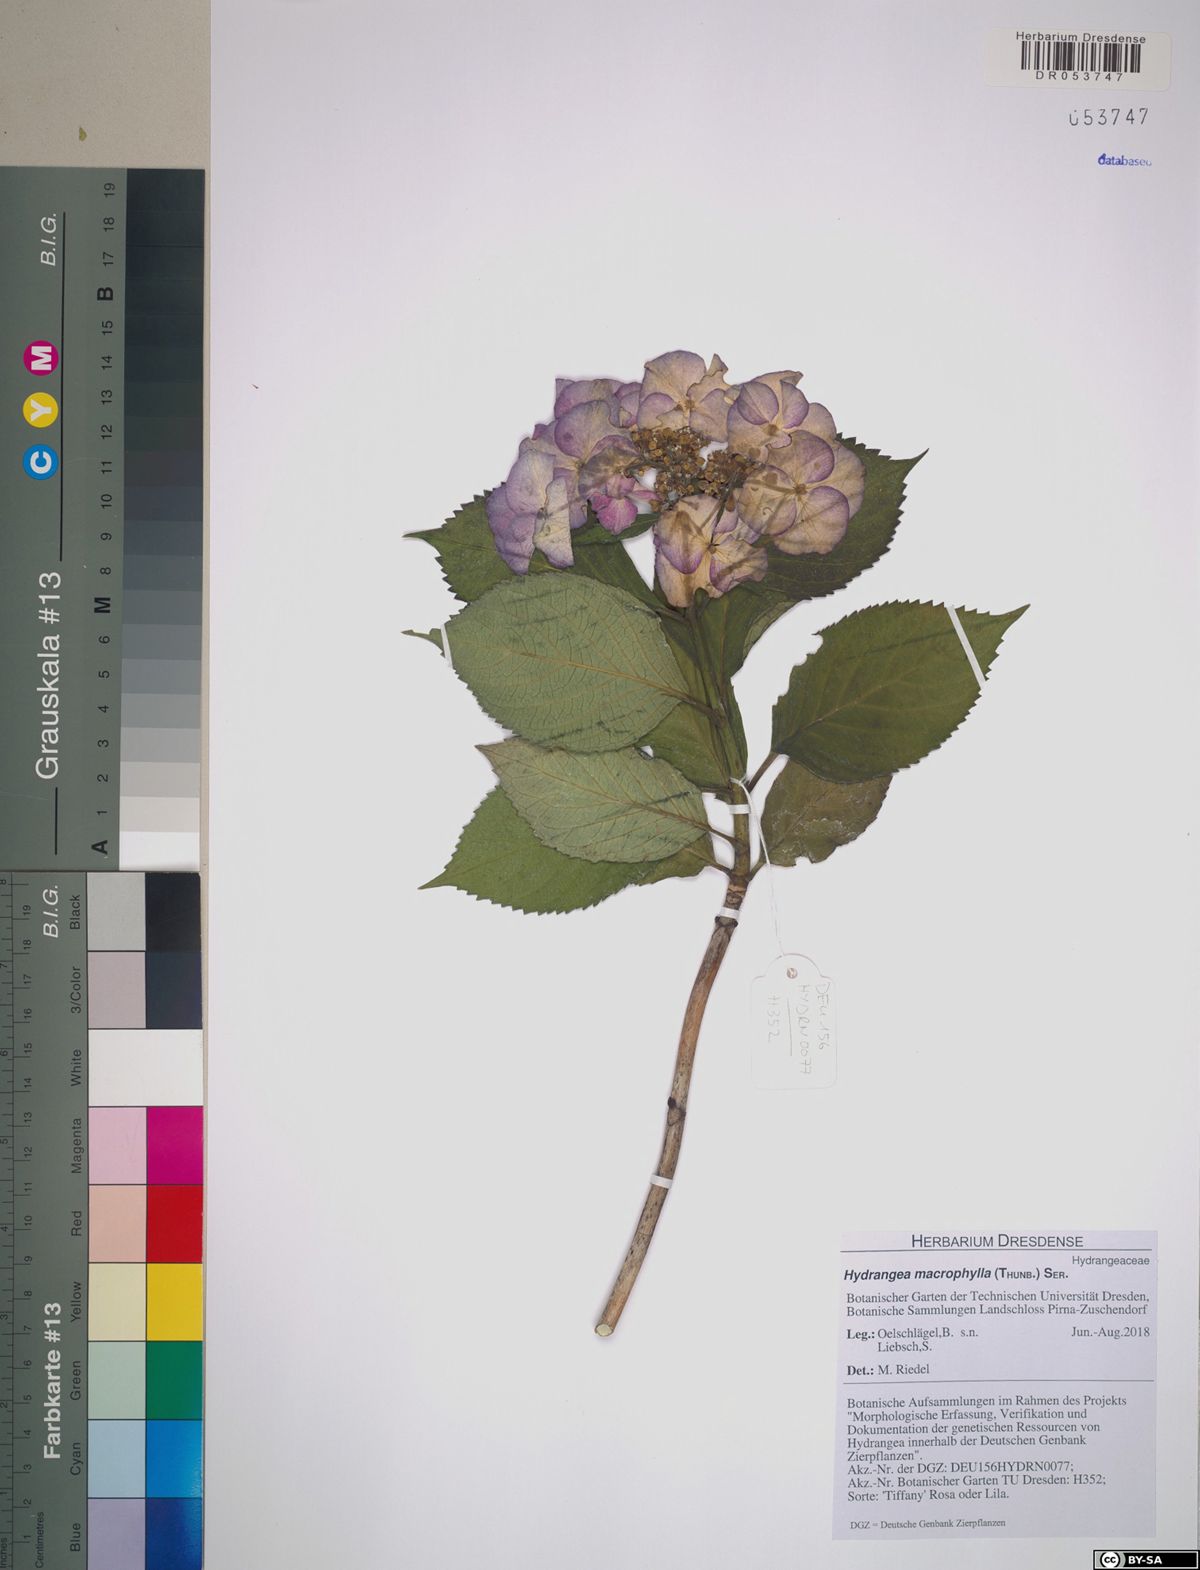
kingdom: Plantae
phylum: Tracheophyta
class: Magnoliopsida
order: Cornales
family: Hydrangeaceae
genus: Hydrangea
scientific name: Hydrangea macrophylla
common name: Hydrangea
